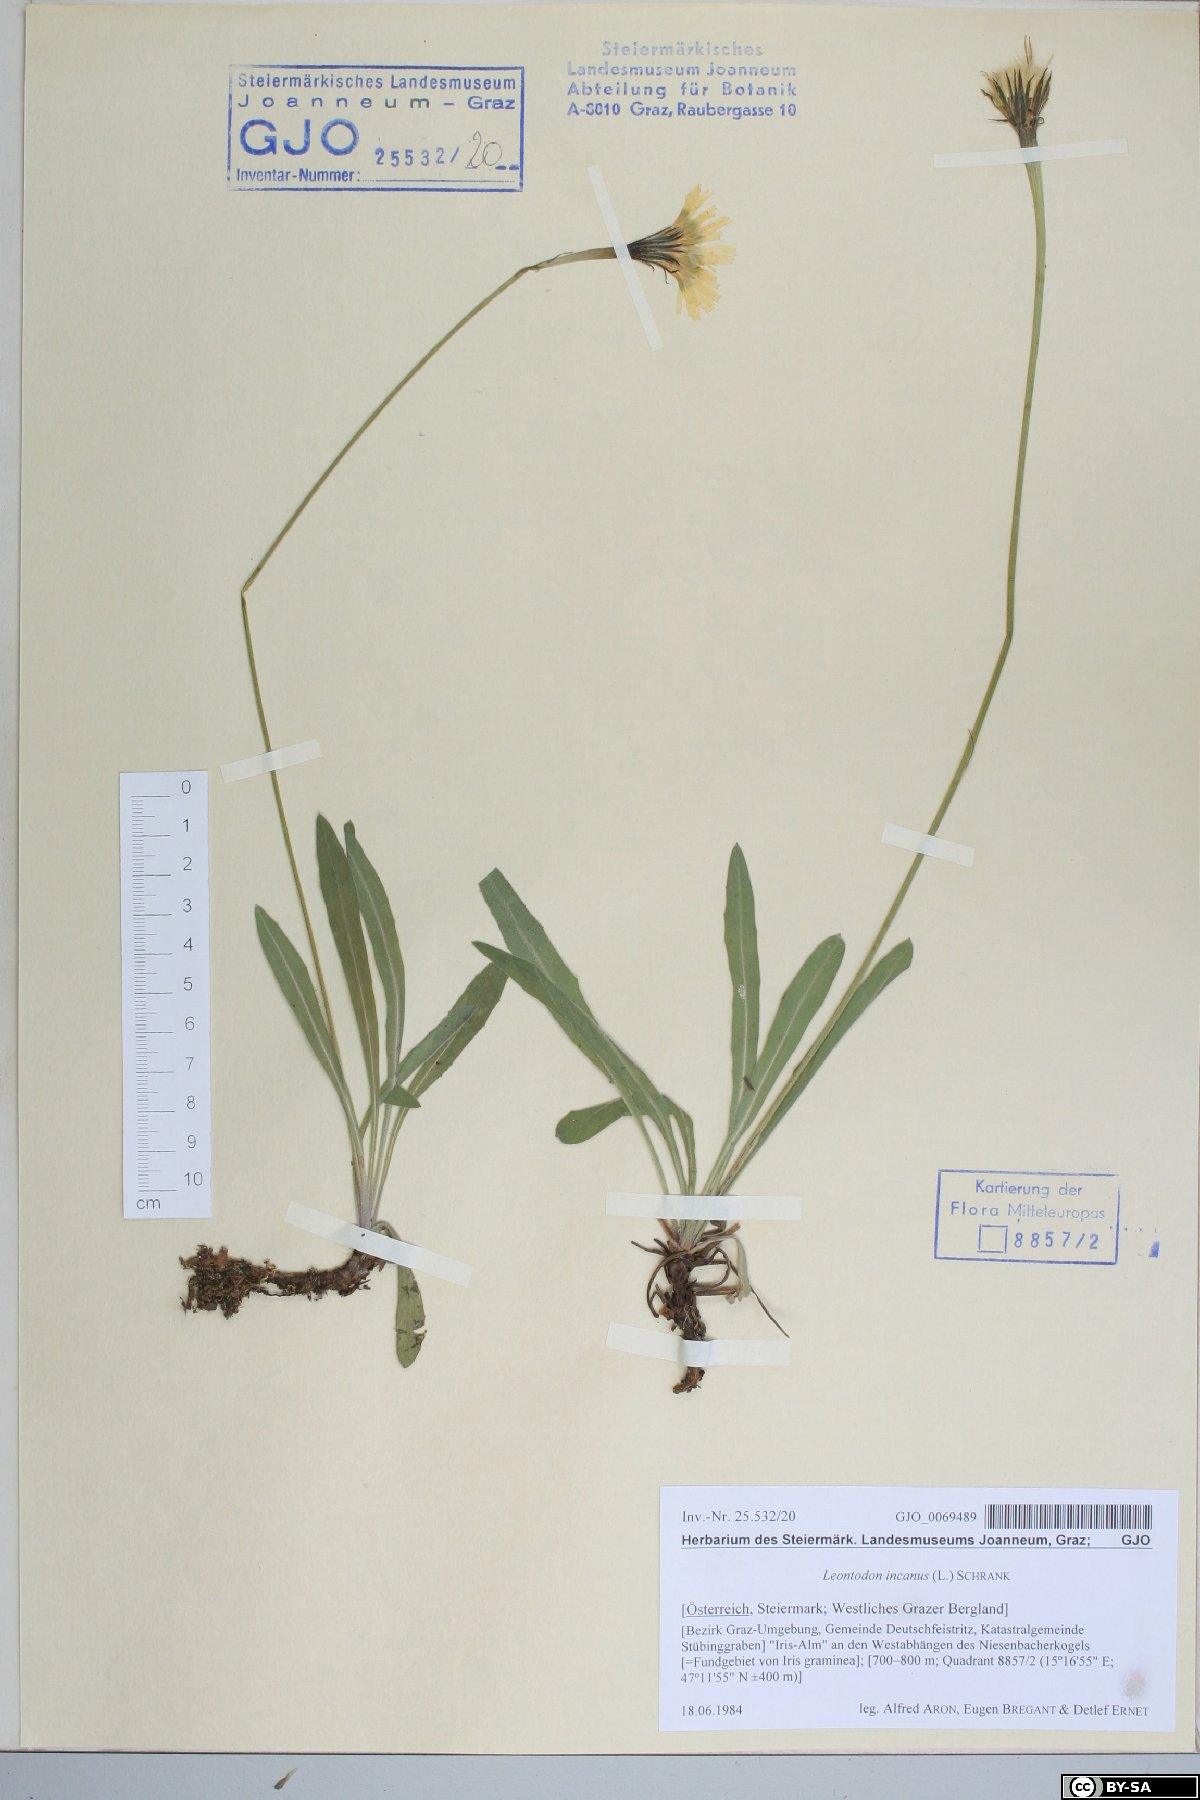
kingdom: Plantae
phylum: Tracheophyta
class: Magnoliopsida
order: Asterales
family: Asteraceae
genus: Leontodon
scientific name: Leontodon incanus
